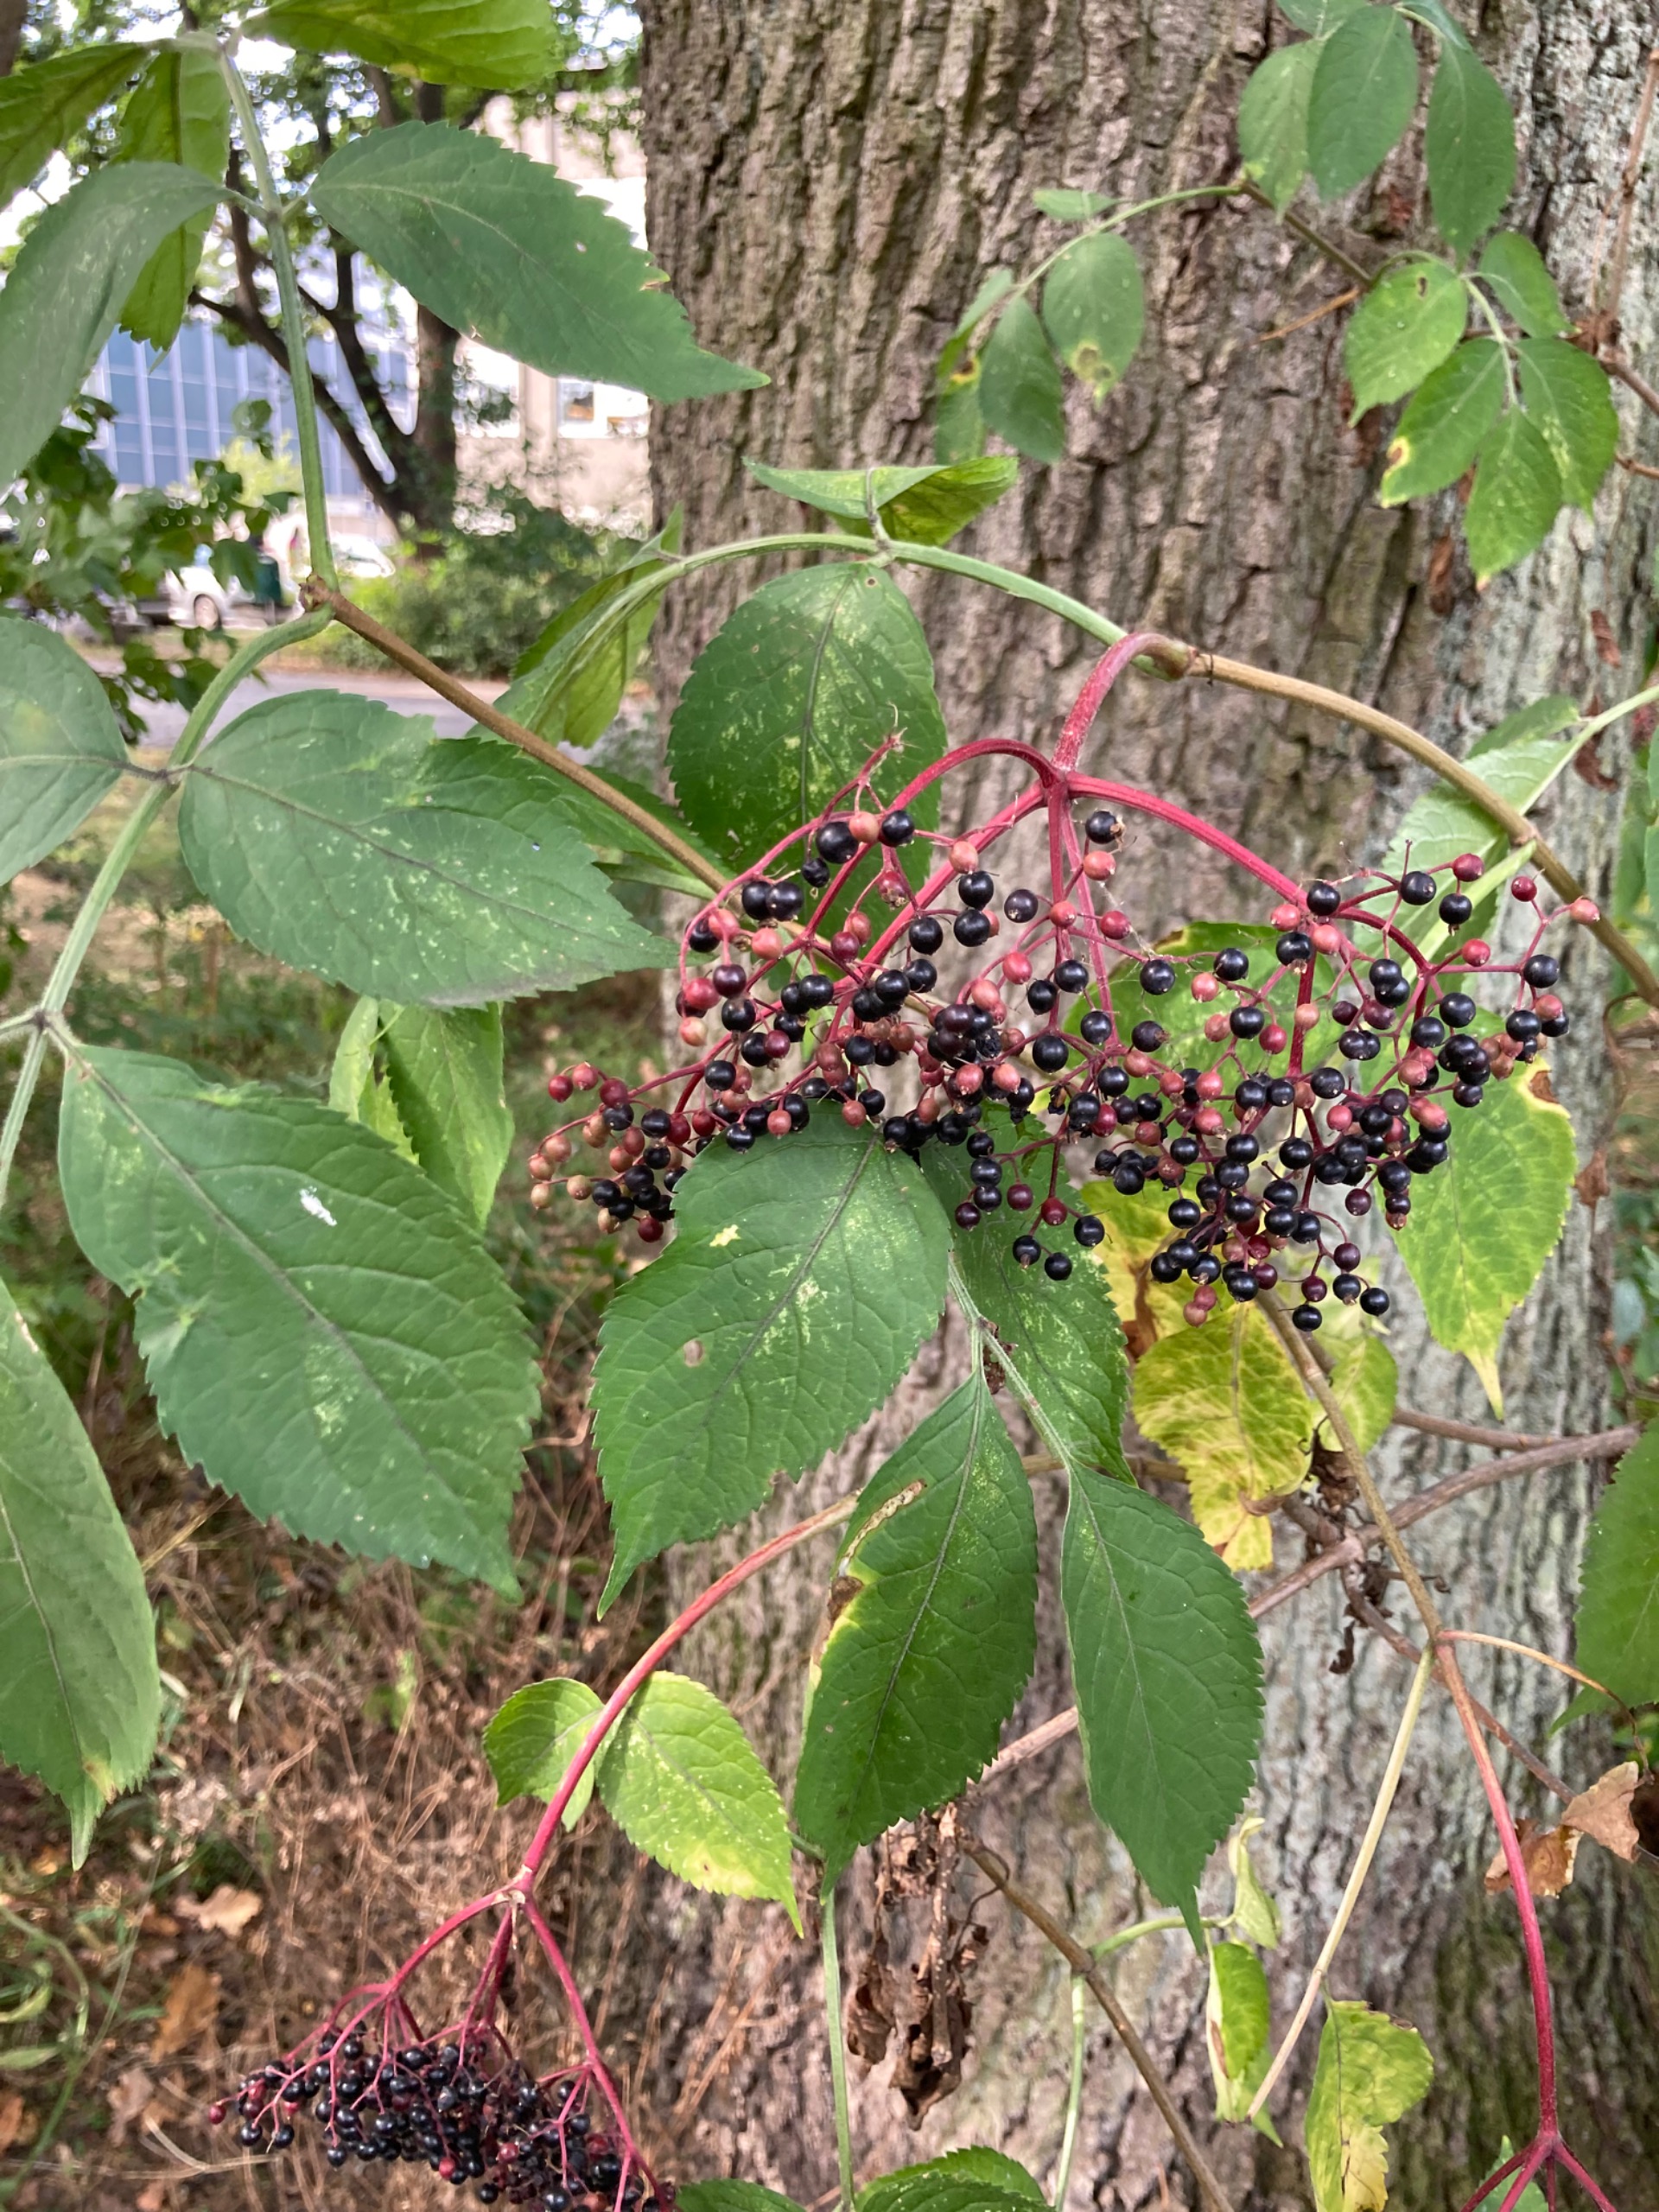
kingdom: Plantae
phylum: Tracheophyta
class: Magnoliopsida
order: Dipsacales
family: Viburnaceae
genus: Sambucus
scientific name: Sambucus nigra
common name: Almindelig hyld
